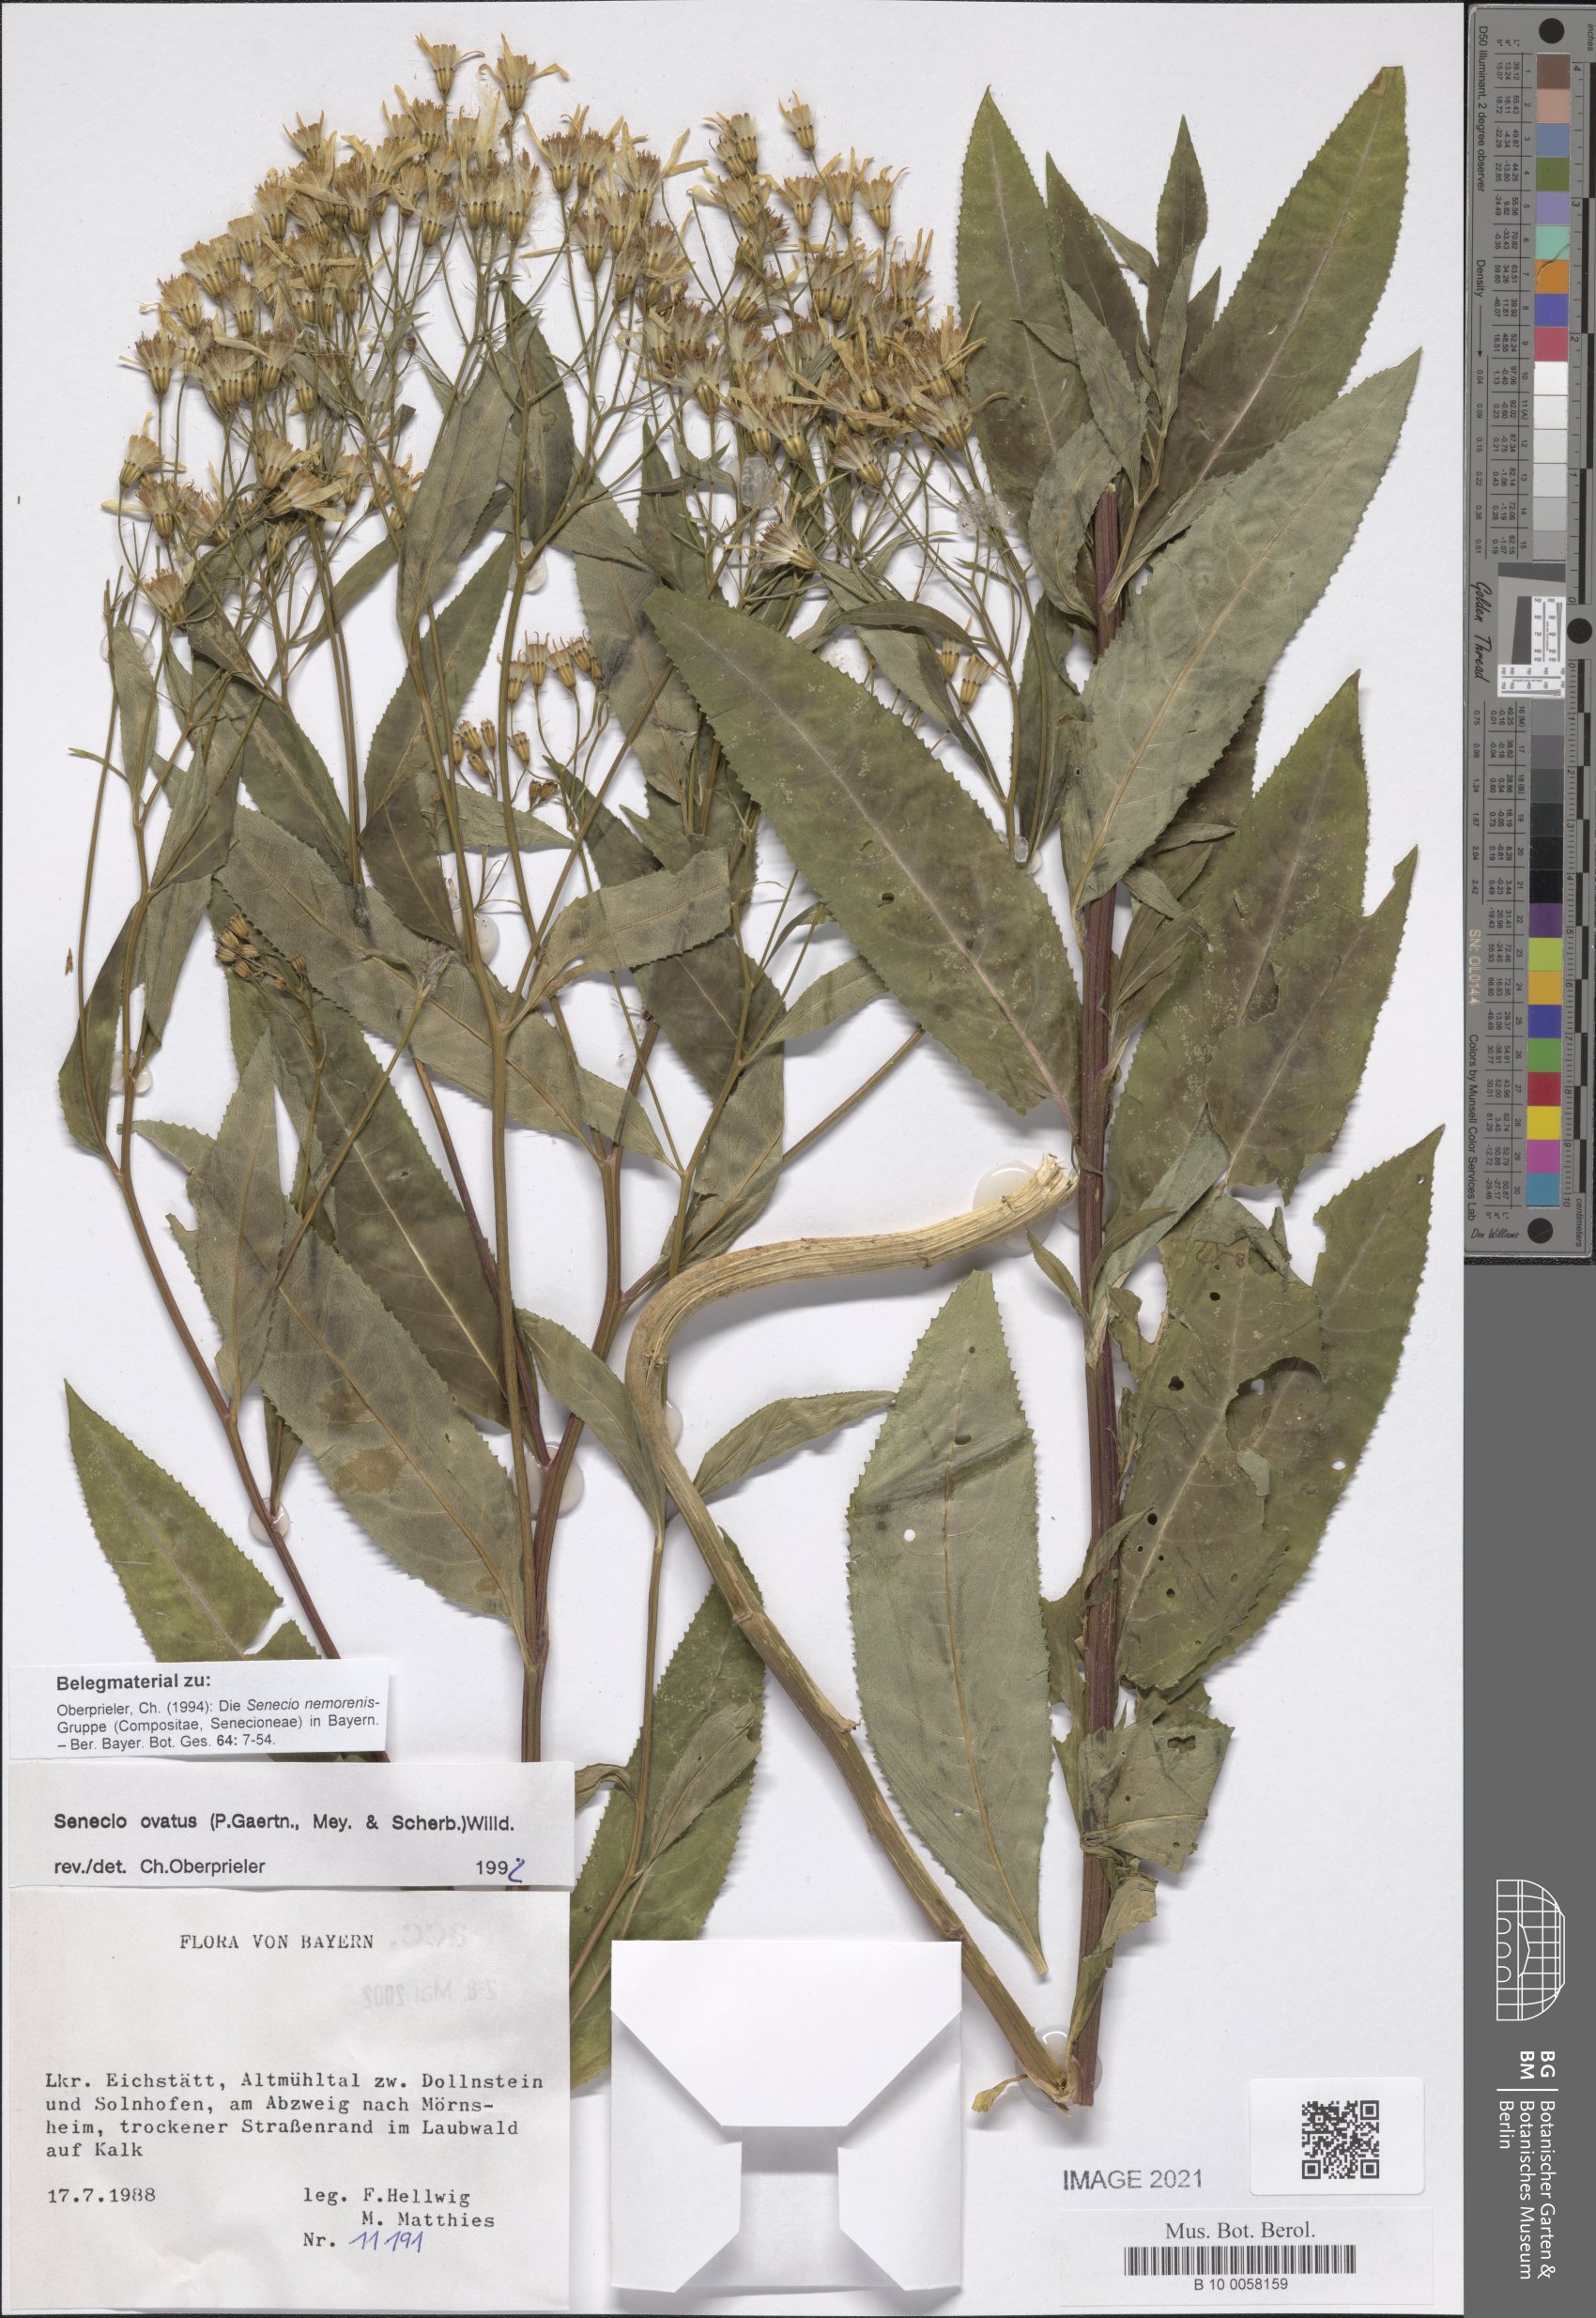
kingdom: Plantae
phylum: Tracheophyta
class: Magnoliopsida
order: Asterales
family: Asteraceae
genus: Senecio
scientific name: Senecio ovatus
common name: Wood ragwort
